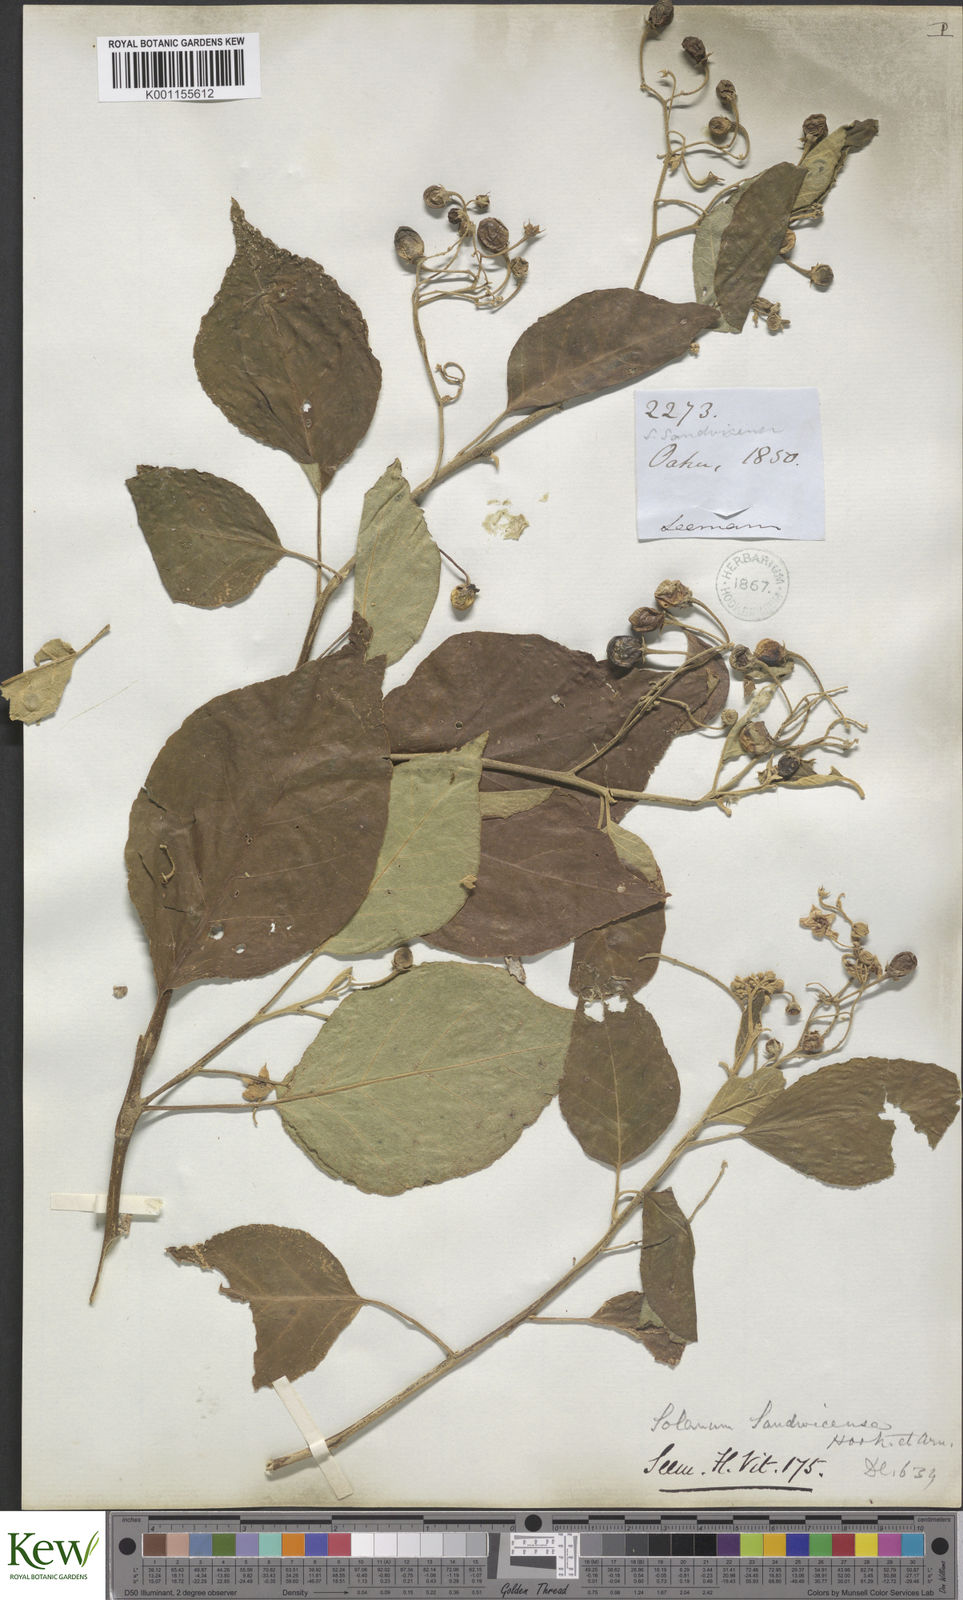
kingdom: Plantae
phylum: Tracheophyta
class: Magnoliopsida
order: Solanales
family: Solanaceae
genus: Solanum
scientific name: Solanum sandwicense
